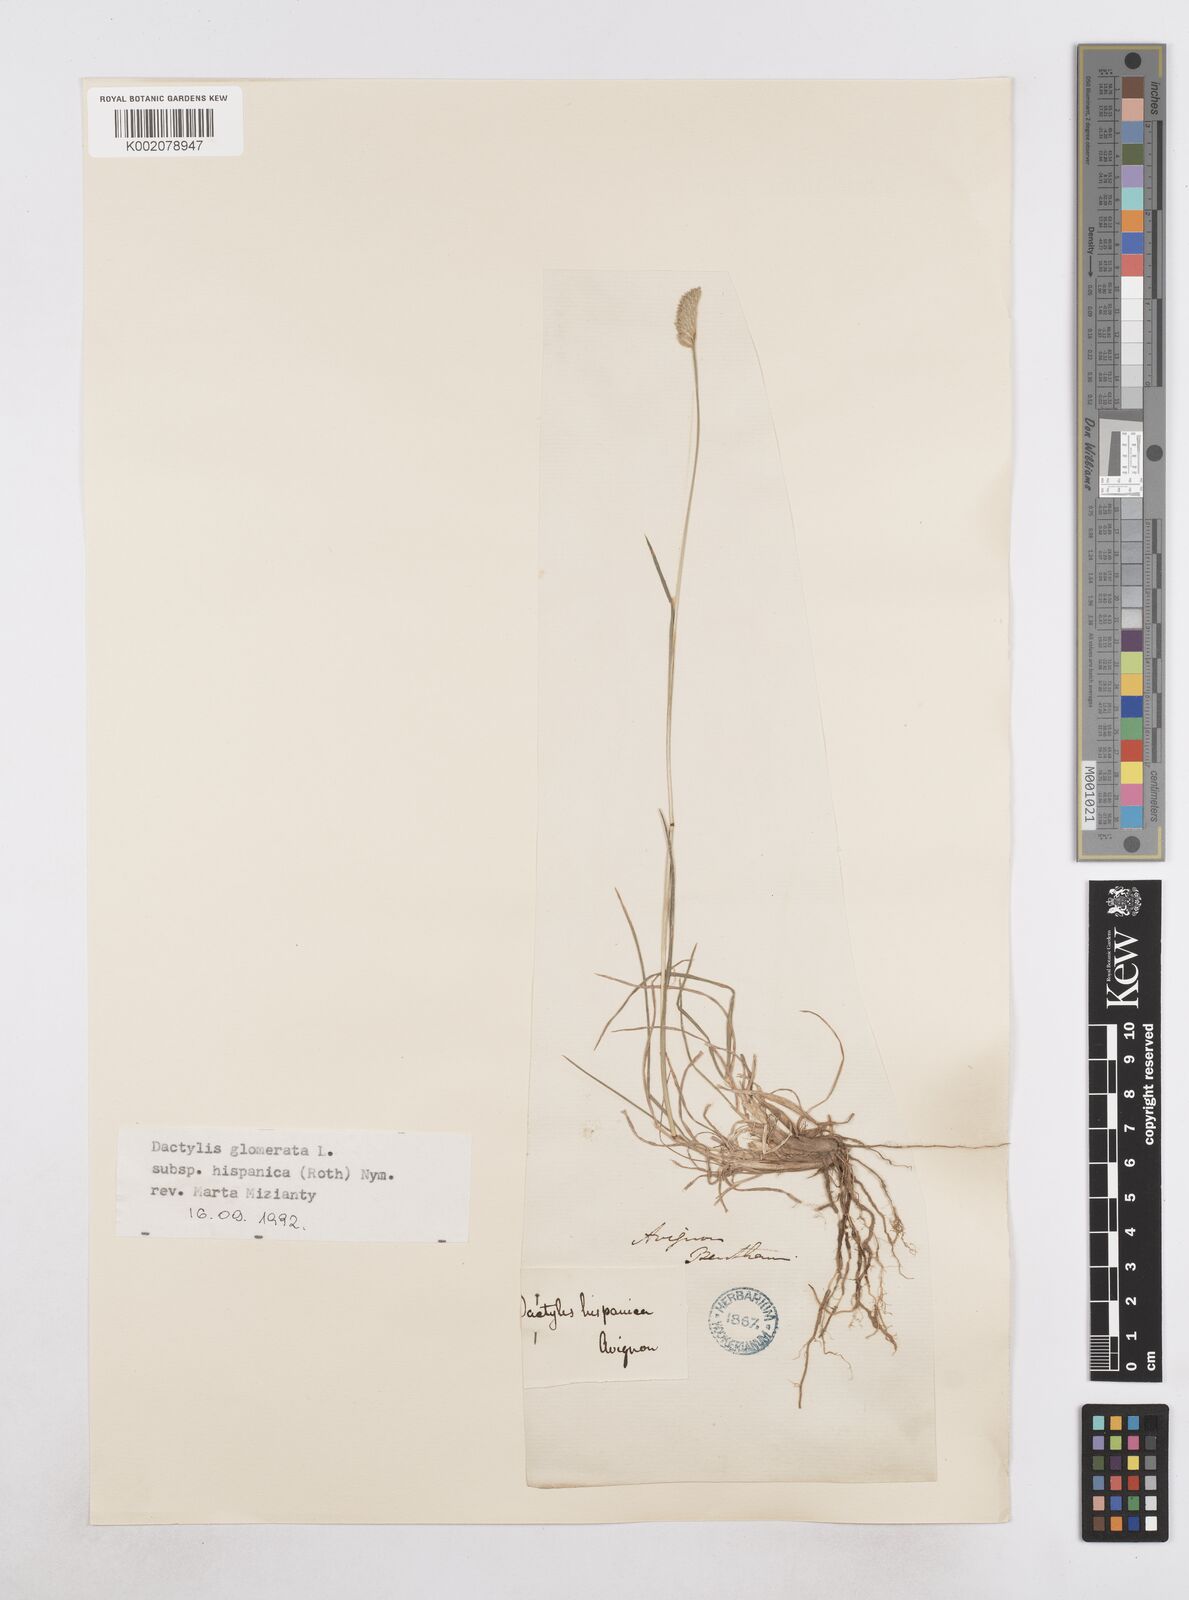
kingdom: Plantae
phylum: Tracheophyta
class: Liliopsida
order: Poales
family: Poaceae
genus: Dactylis
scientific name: Dactylis glomerata
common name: Orchardgrass
